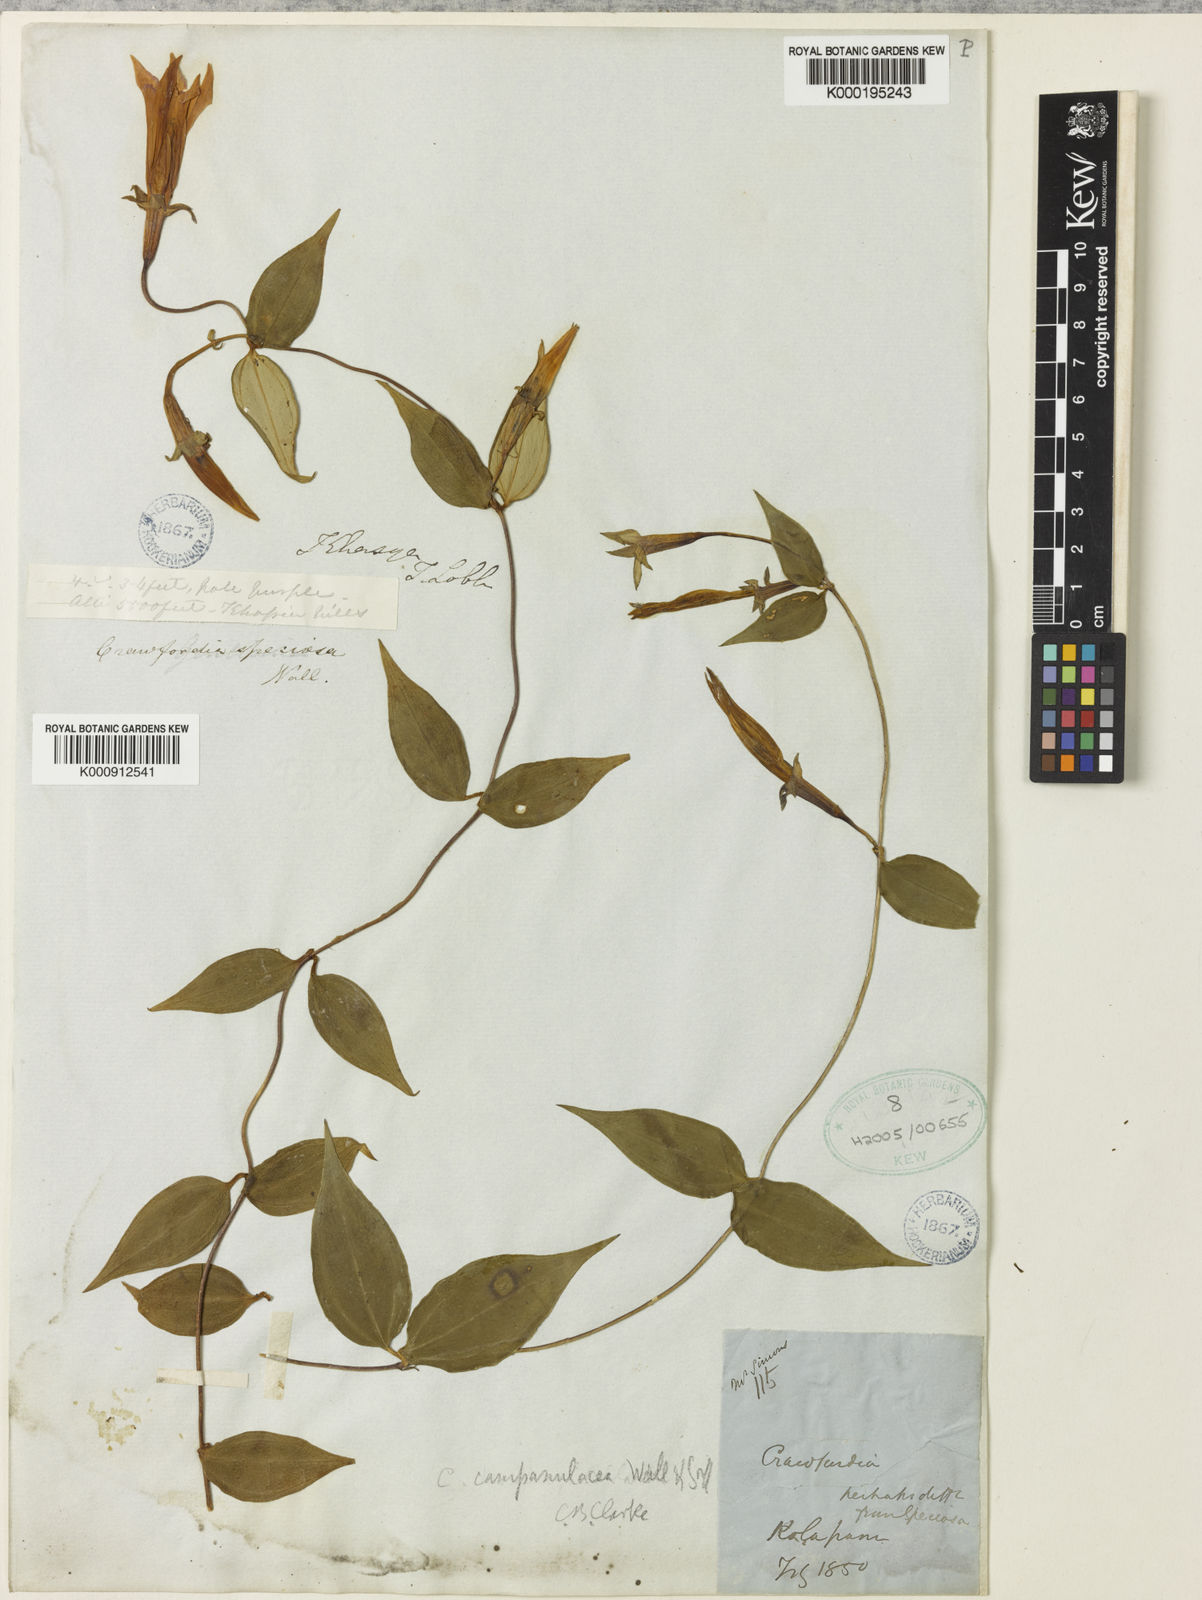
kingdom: Plantae
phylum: Tracheophyta
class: Magnoliopsida
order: Gentianales
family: Gentianaceae
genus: Crawfurdia
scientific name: Crawfurdia campanulacea
